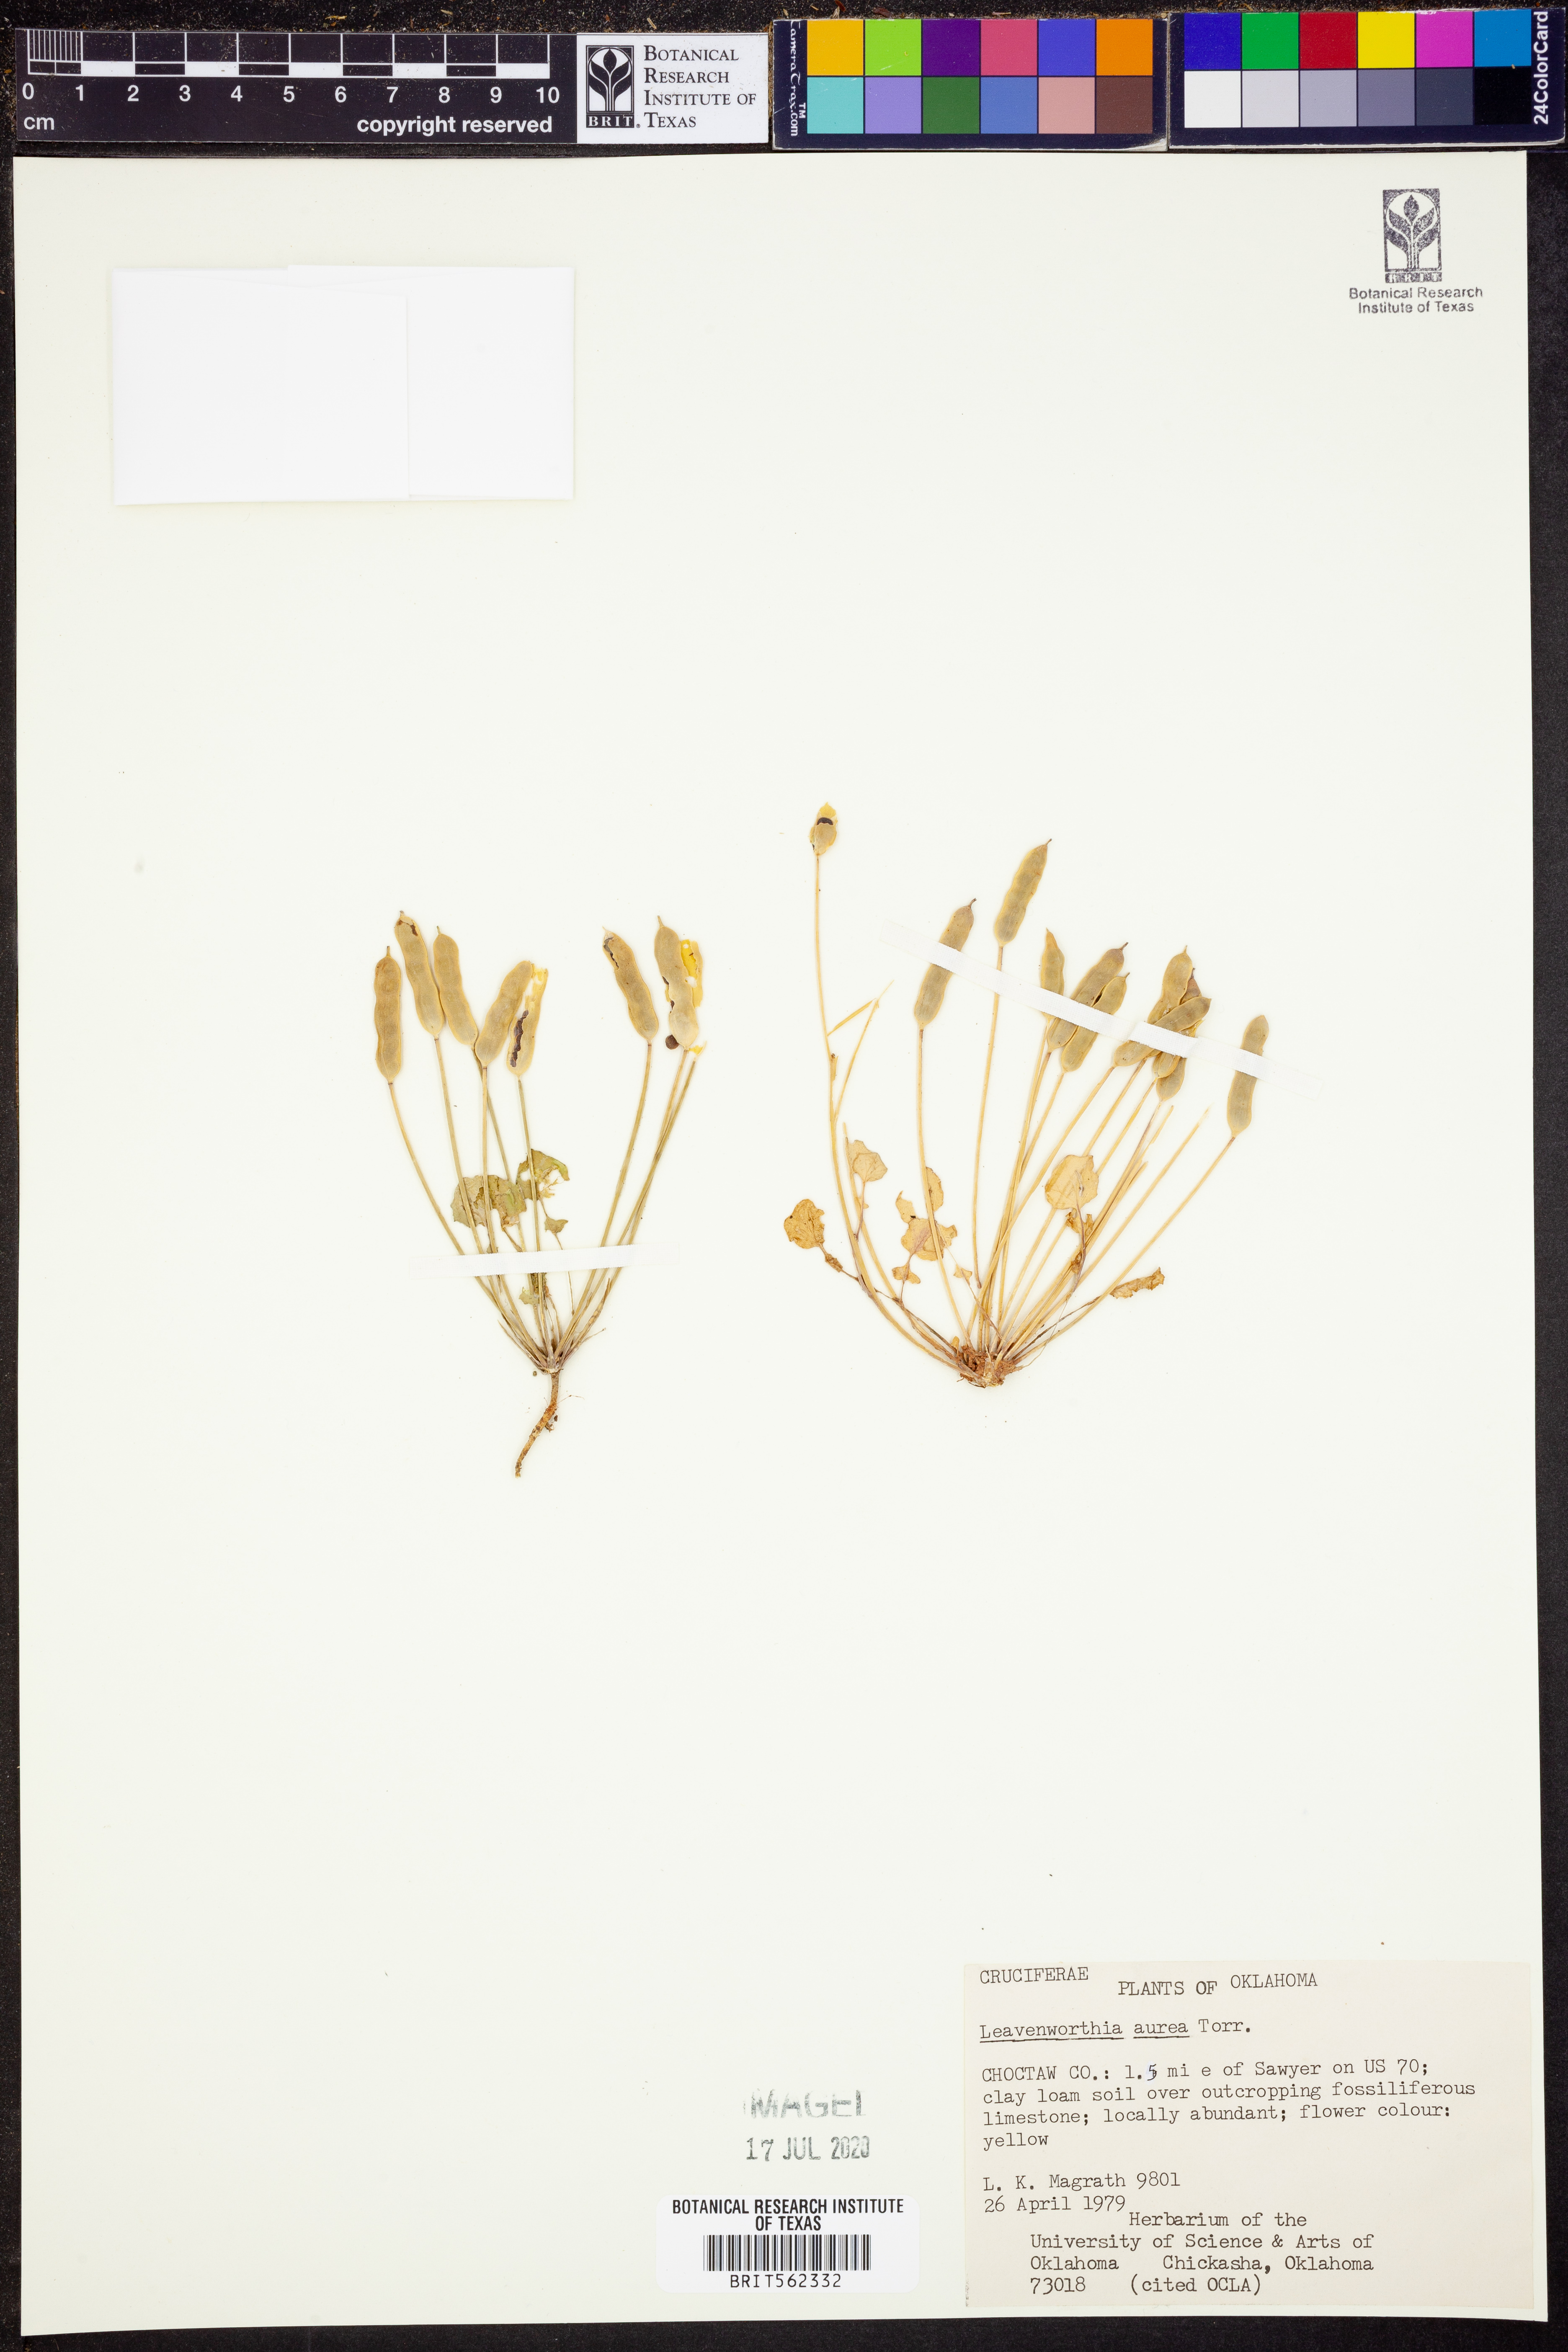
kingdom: Plantae
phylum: Tracheophyta
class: Magnoliopsida
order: Brassicales
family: Brassicaceae
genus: Leavenworthia
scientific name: Leavenworthia aurea
